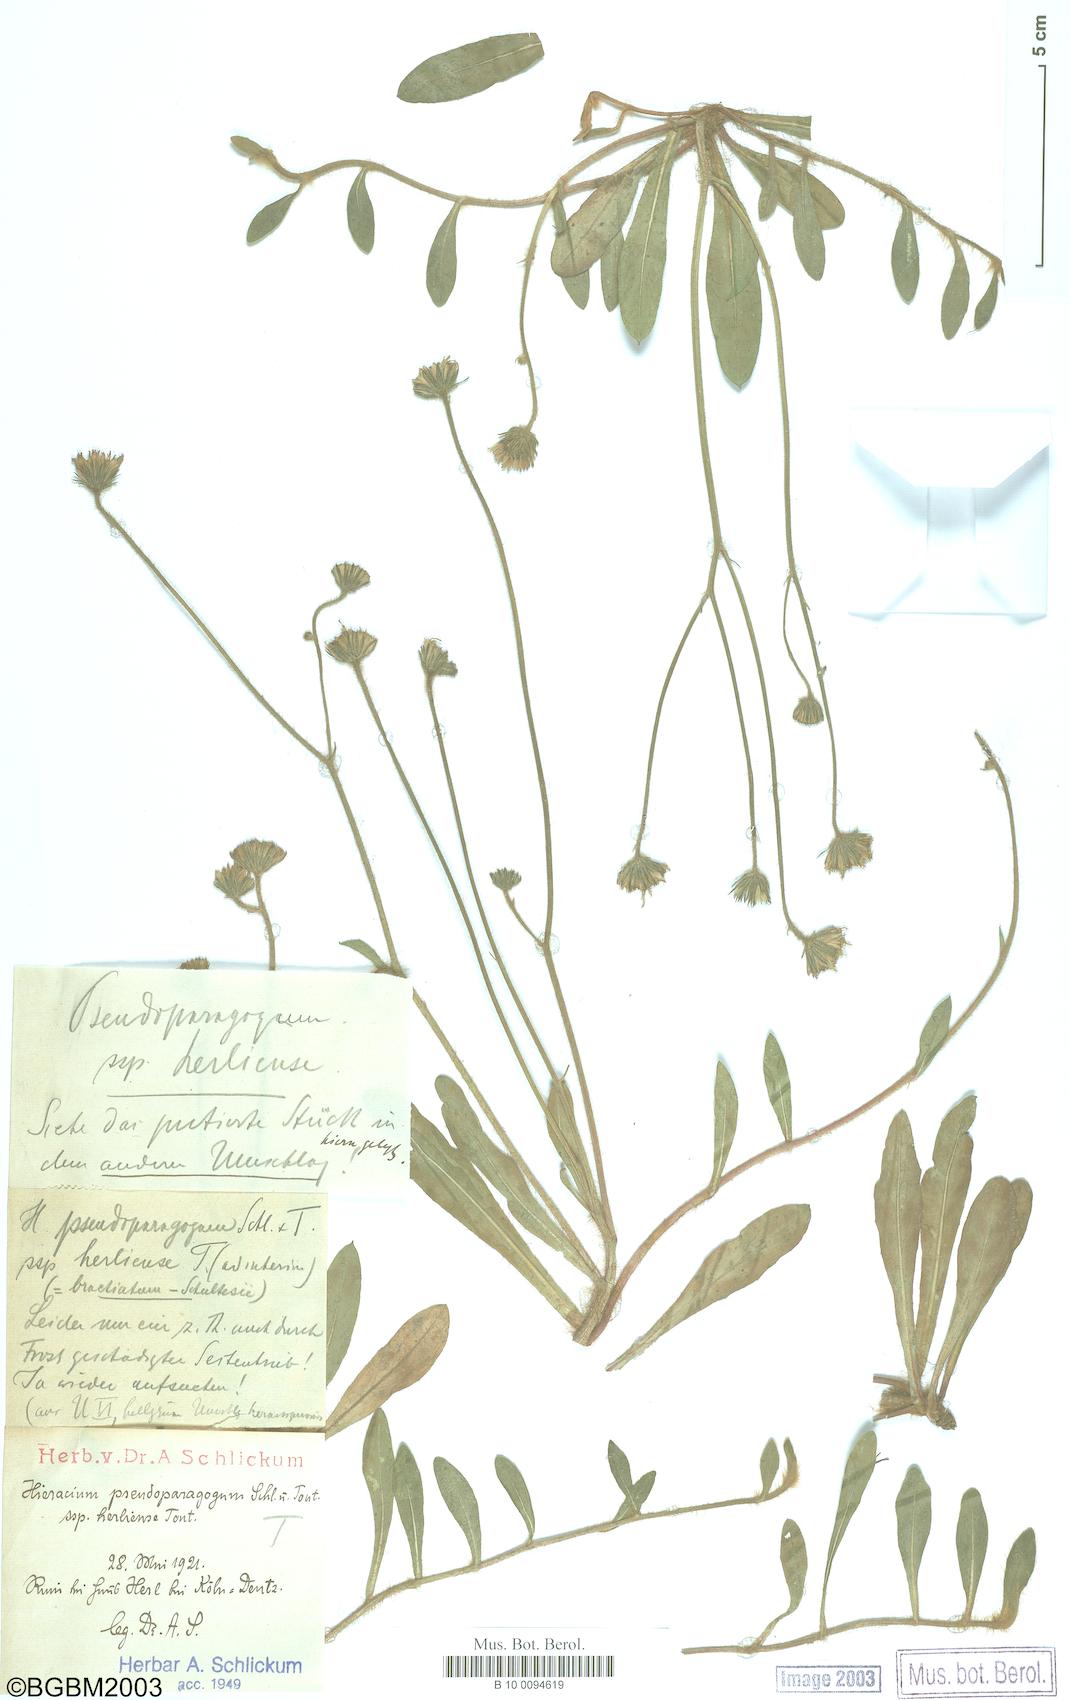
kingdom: Plantae
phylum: Tracheophyta
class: Magnoliopsida
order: Asterales
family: Asteraceae
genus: Pilosella
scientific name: Pilosella pseudoparagoga
